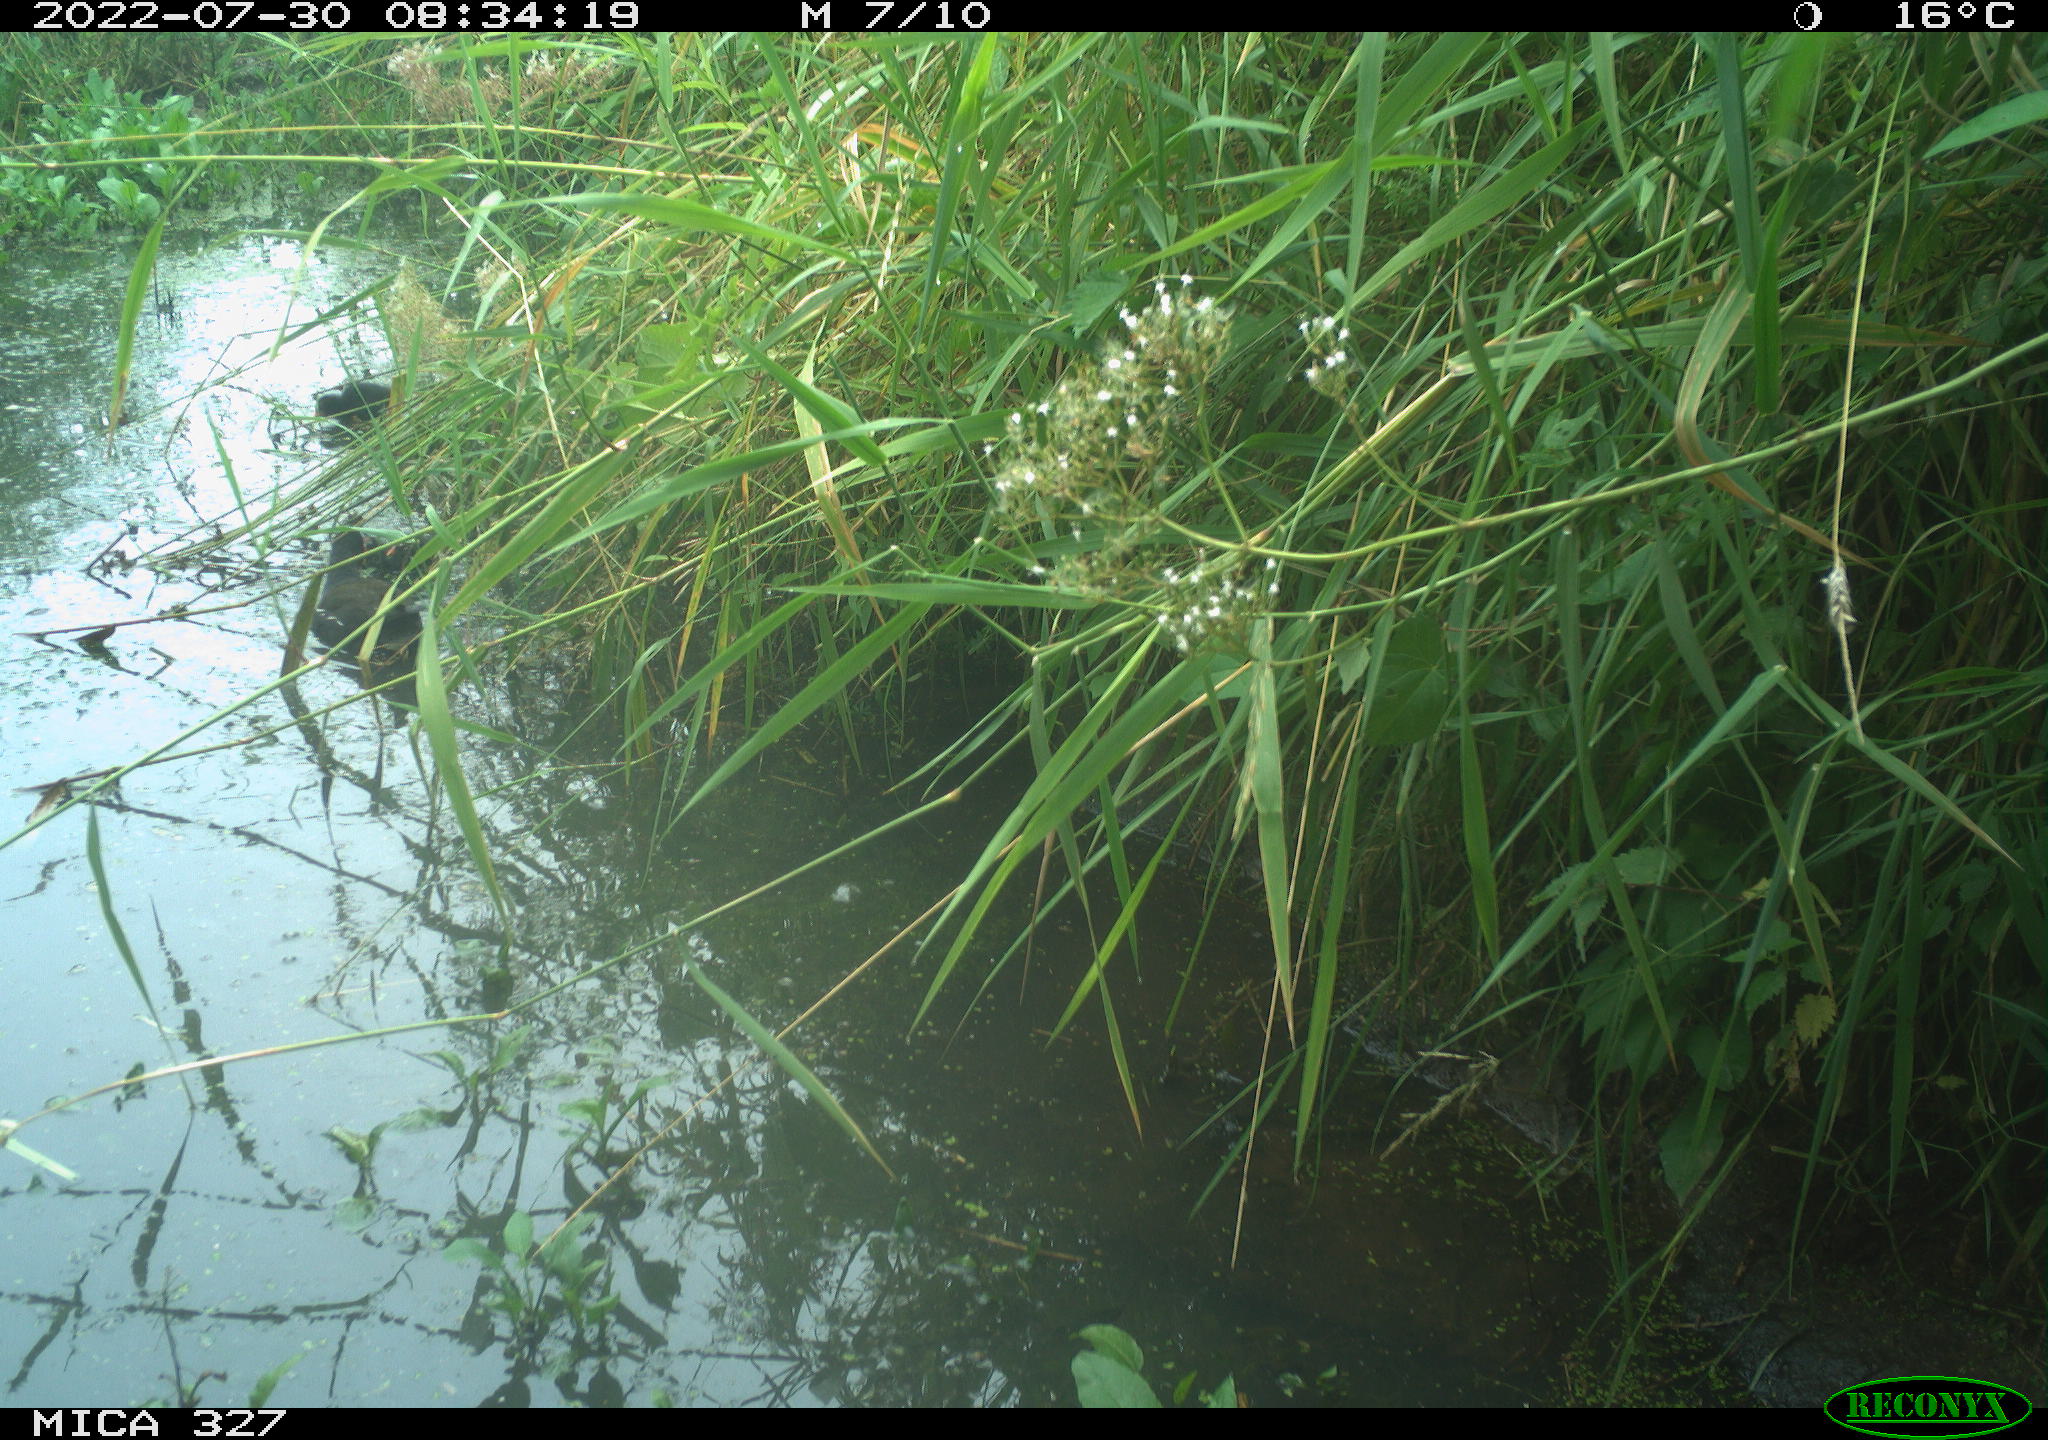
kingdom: Animalia
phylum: Chordata
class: Aves
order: Gruiformes
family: Rallidae
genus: Gallinula
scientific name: Gallinula chloropus
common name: Common moorhen
